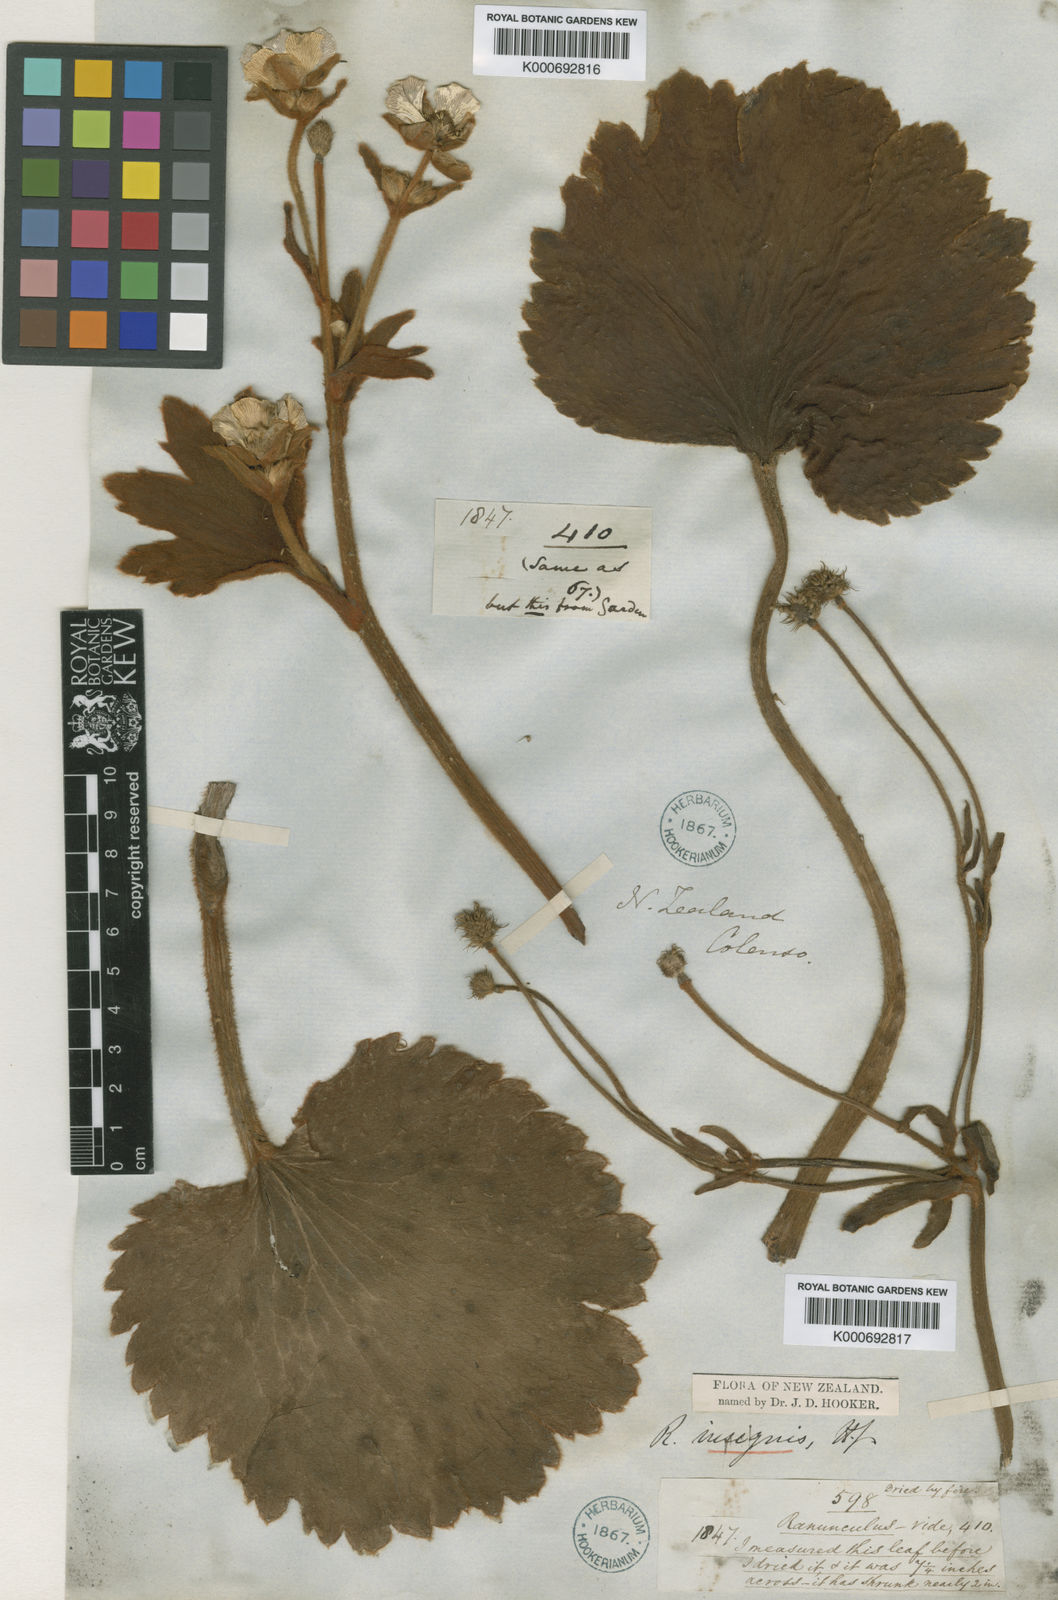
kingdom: Plantae
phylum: Tracheophyta
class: Magnoliopsida
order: Ranunculales
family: Ranunculaceae
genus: Ranunculus
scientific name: Ranunculus insignis
